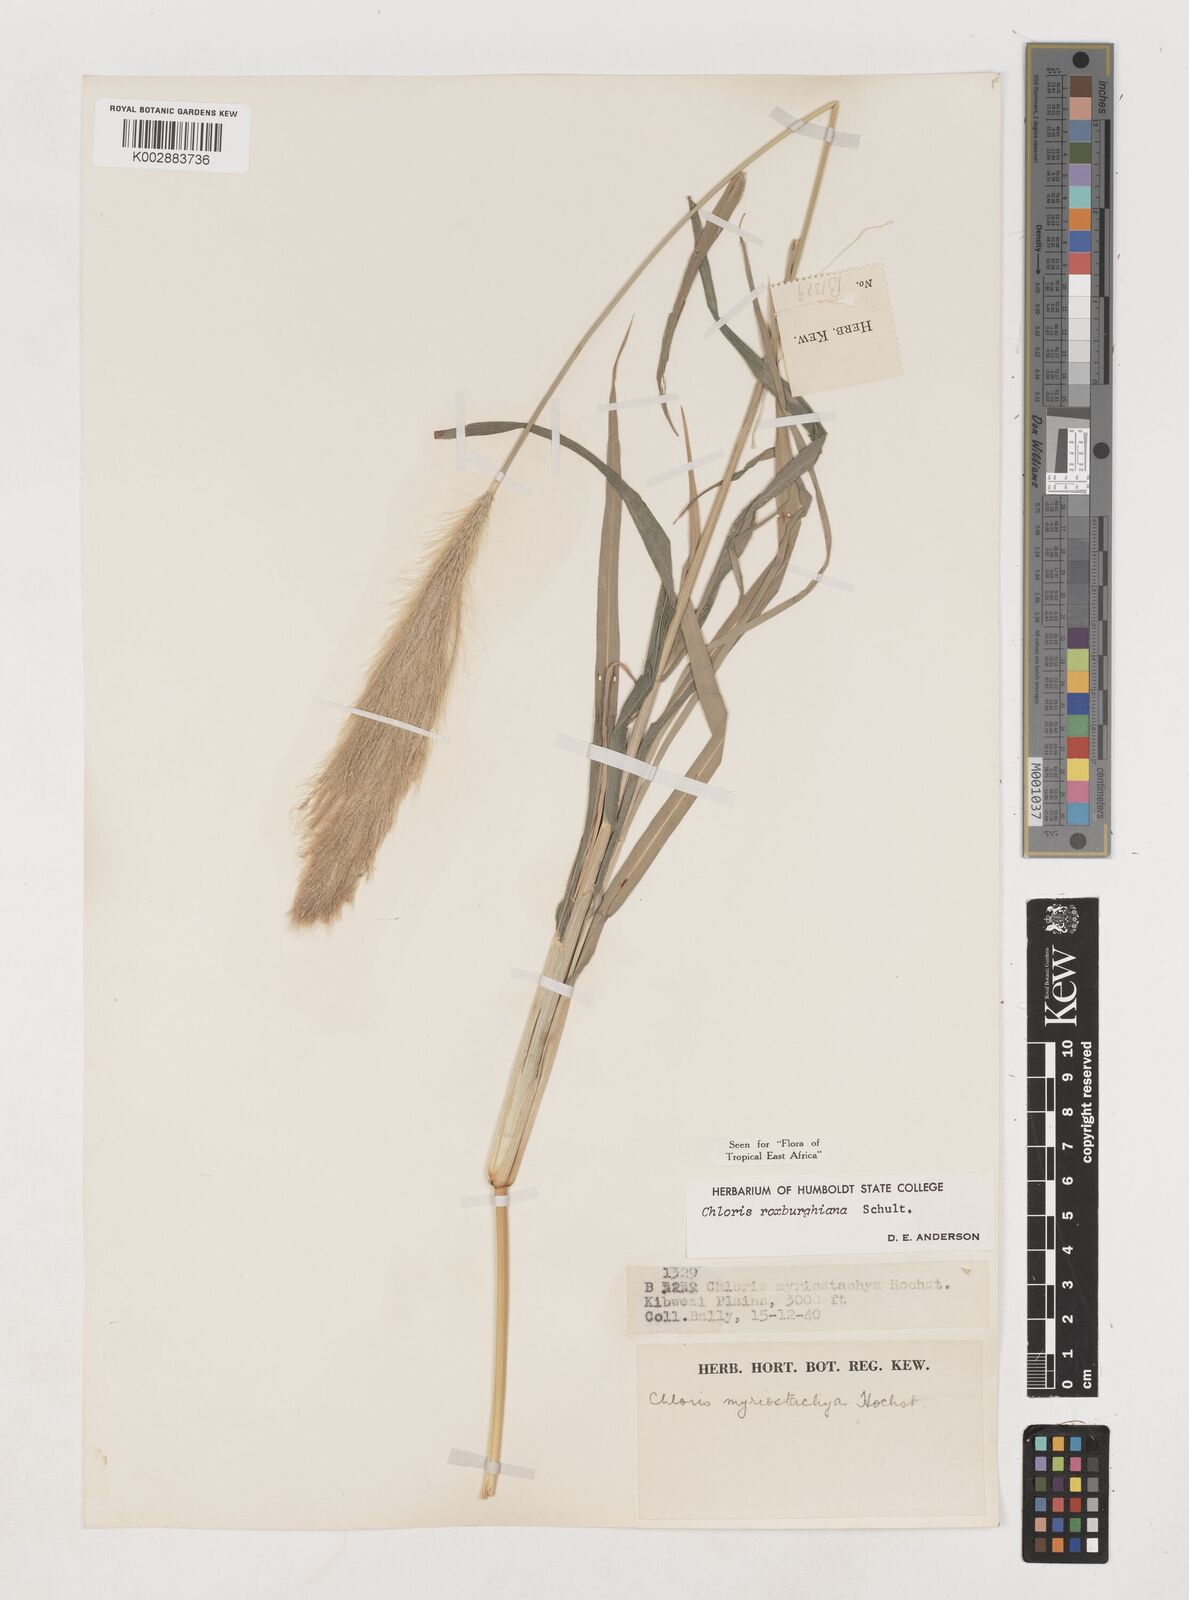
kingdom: Plantae
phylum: Tracheophyta
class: Liliopsida
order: Poales
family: Poaceae
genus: Tetrapogon
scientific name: Tetrapogon roxburghiana
